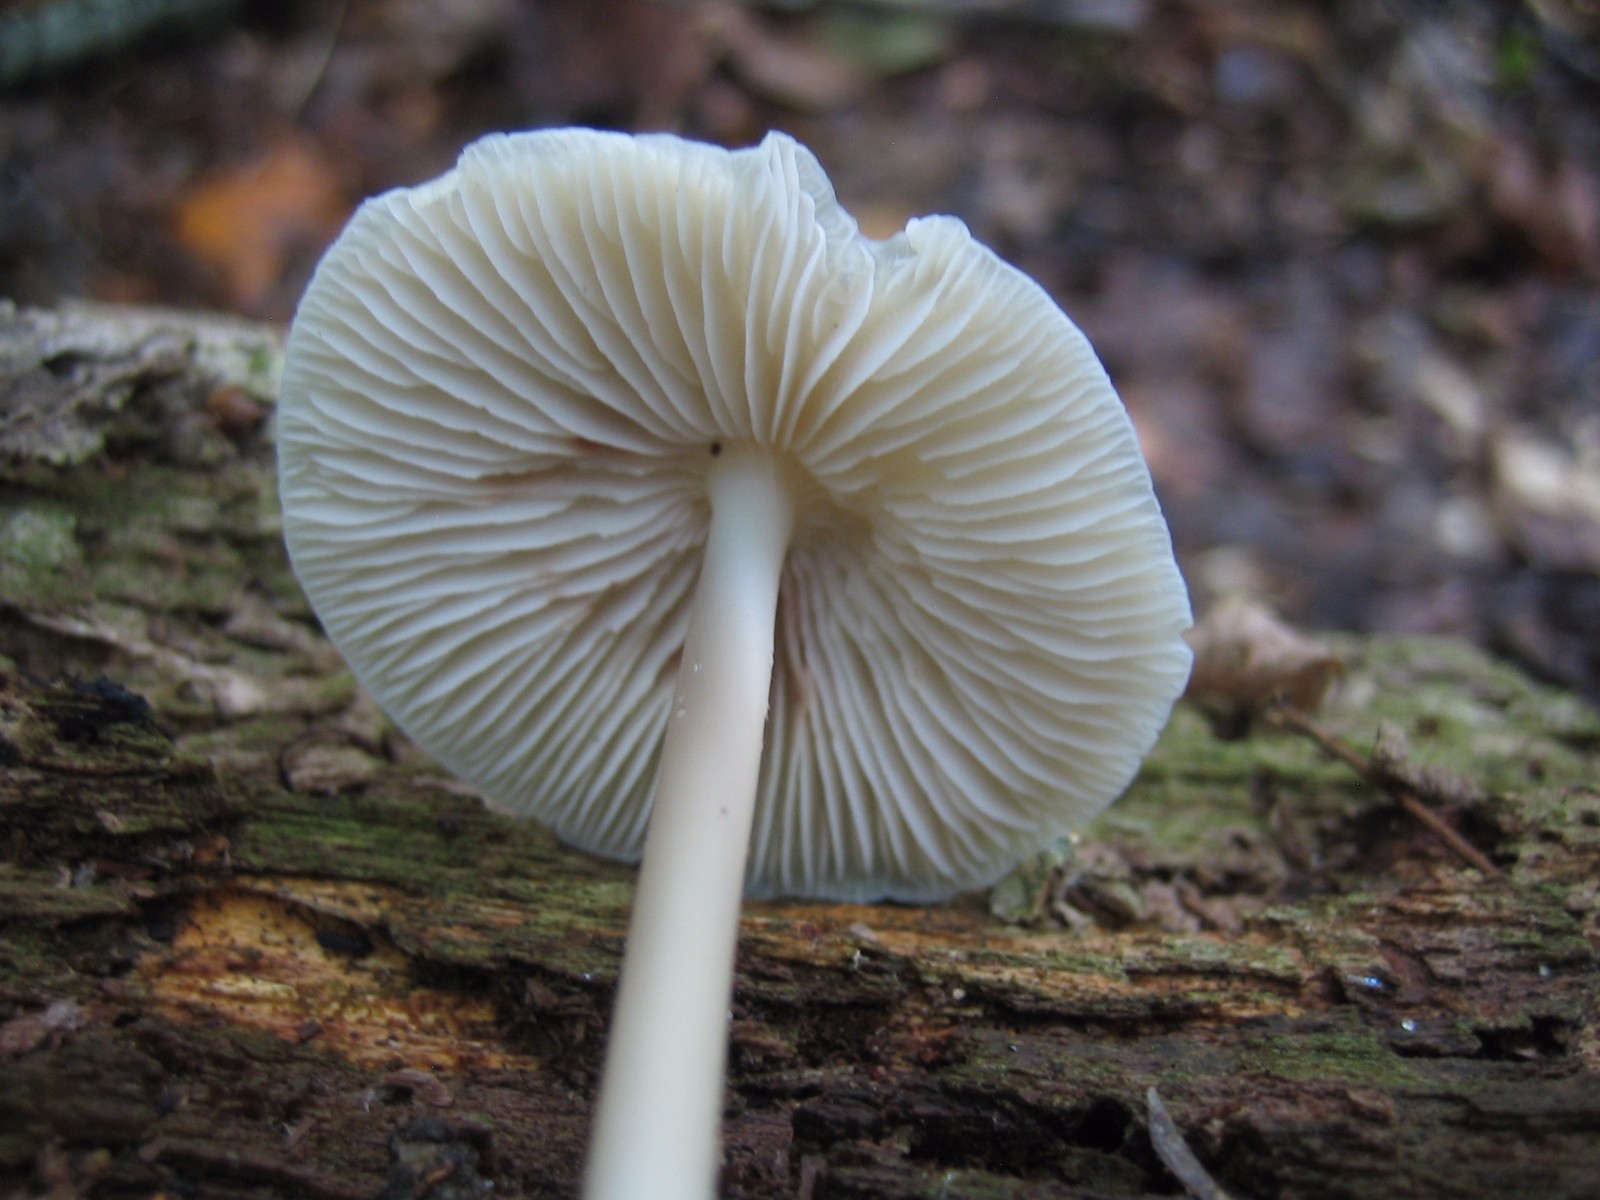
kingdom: Fungi
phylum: Basidiomycota
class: Agaricomycetes
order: Agaricales
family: Mycenaceae
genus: Mycena
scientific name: Mycena galericulata
